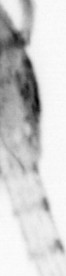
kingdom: Animalia
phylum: Arthropoda
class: Copepoda
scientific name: Copepoda
